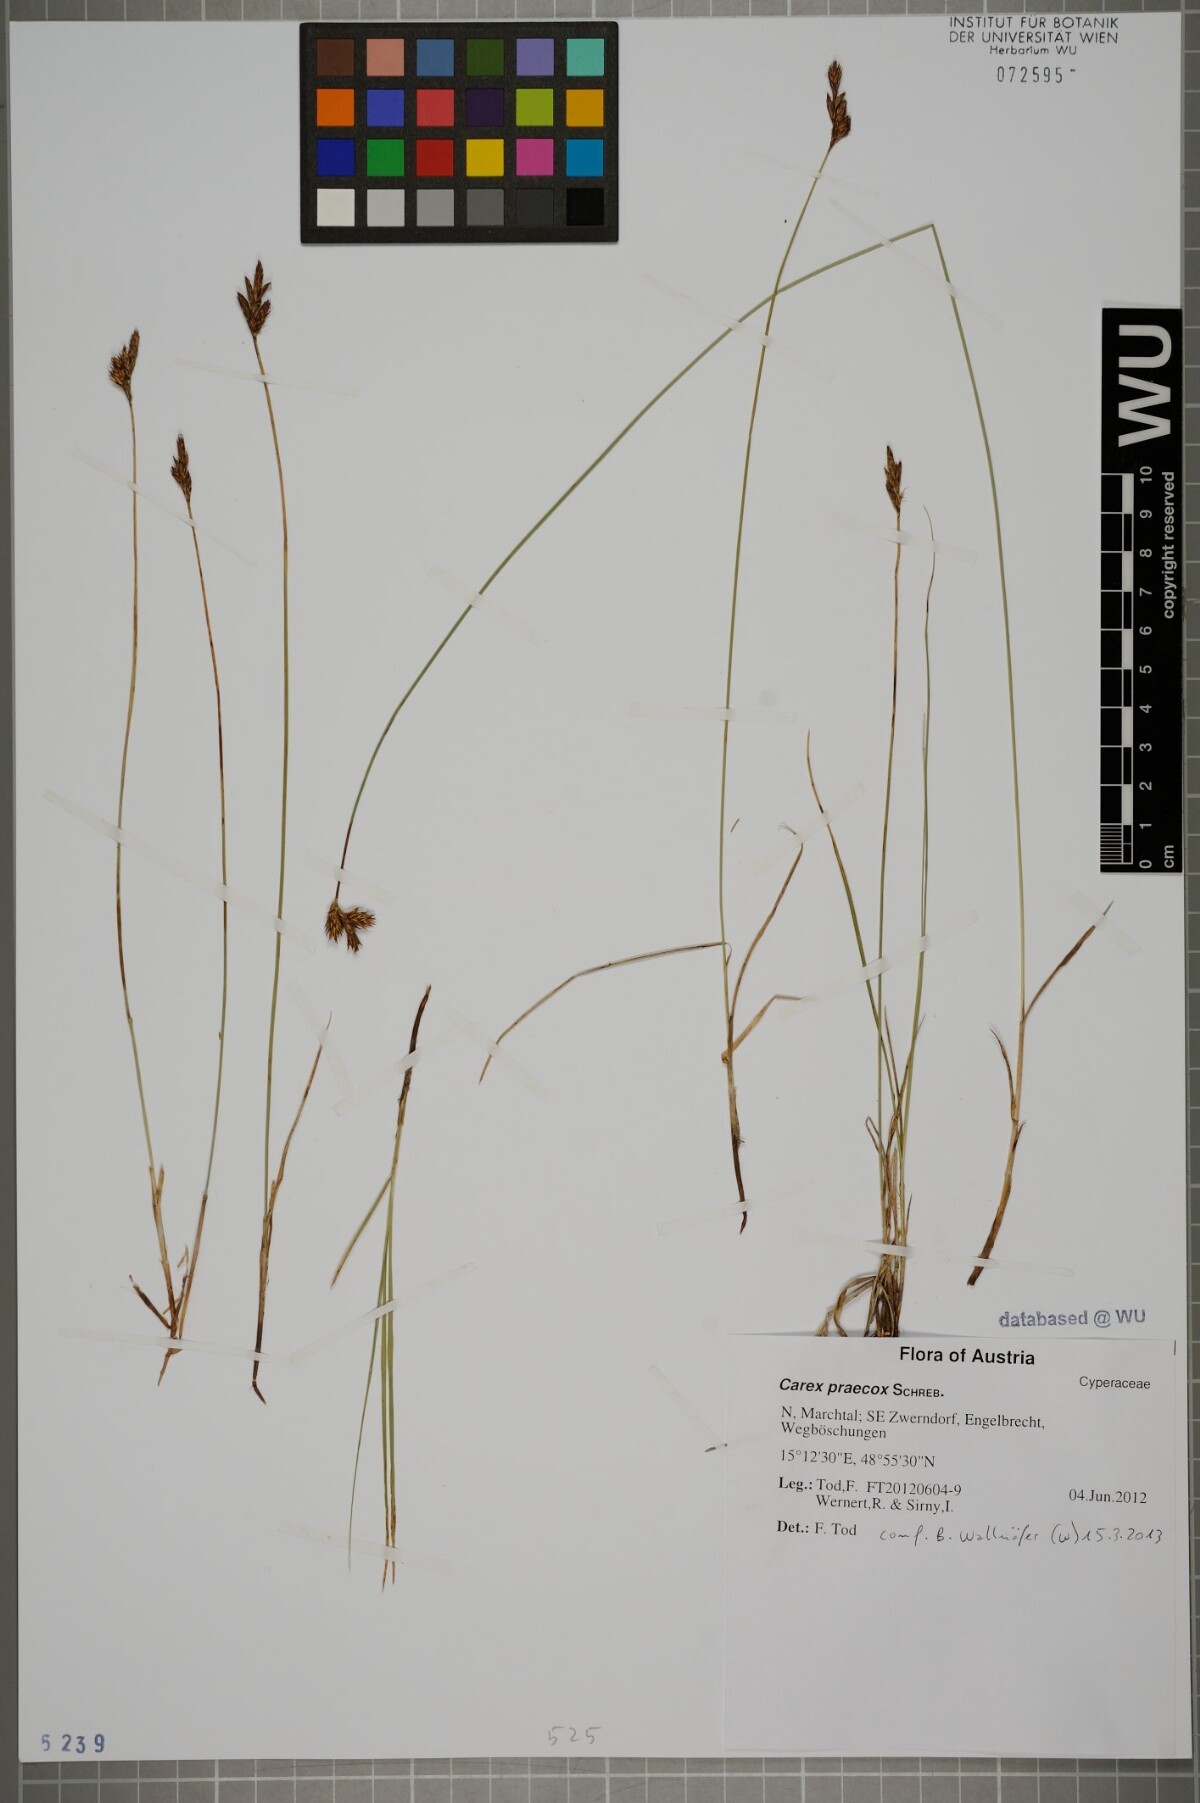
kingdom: Plantae
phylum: Tracheophyta
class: Liliopsida
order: Poales
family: Cyperaceae
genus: Carex
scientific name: Carex praecox
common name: Early sedge
